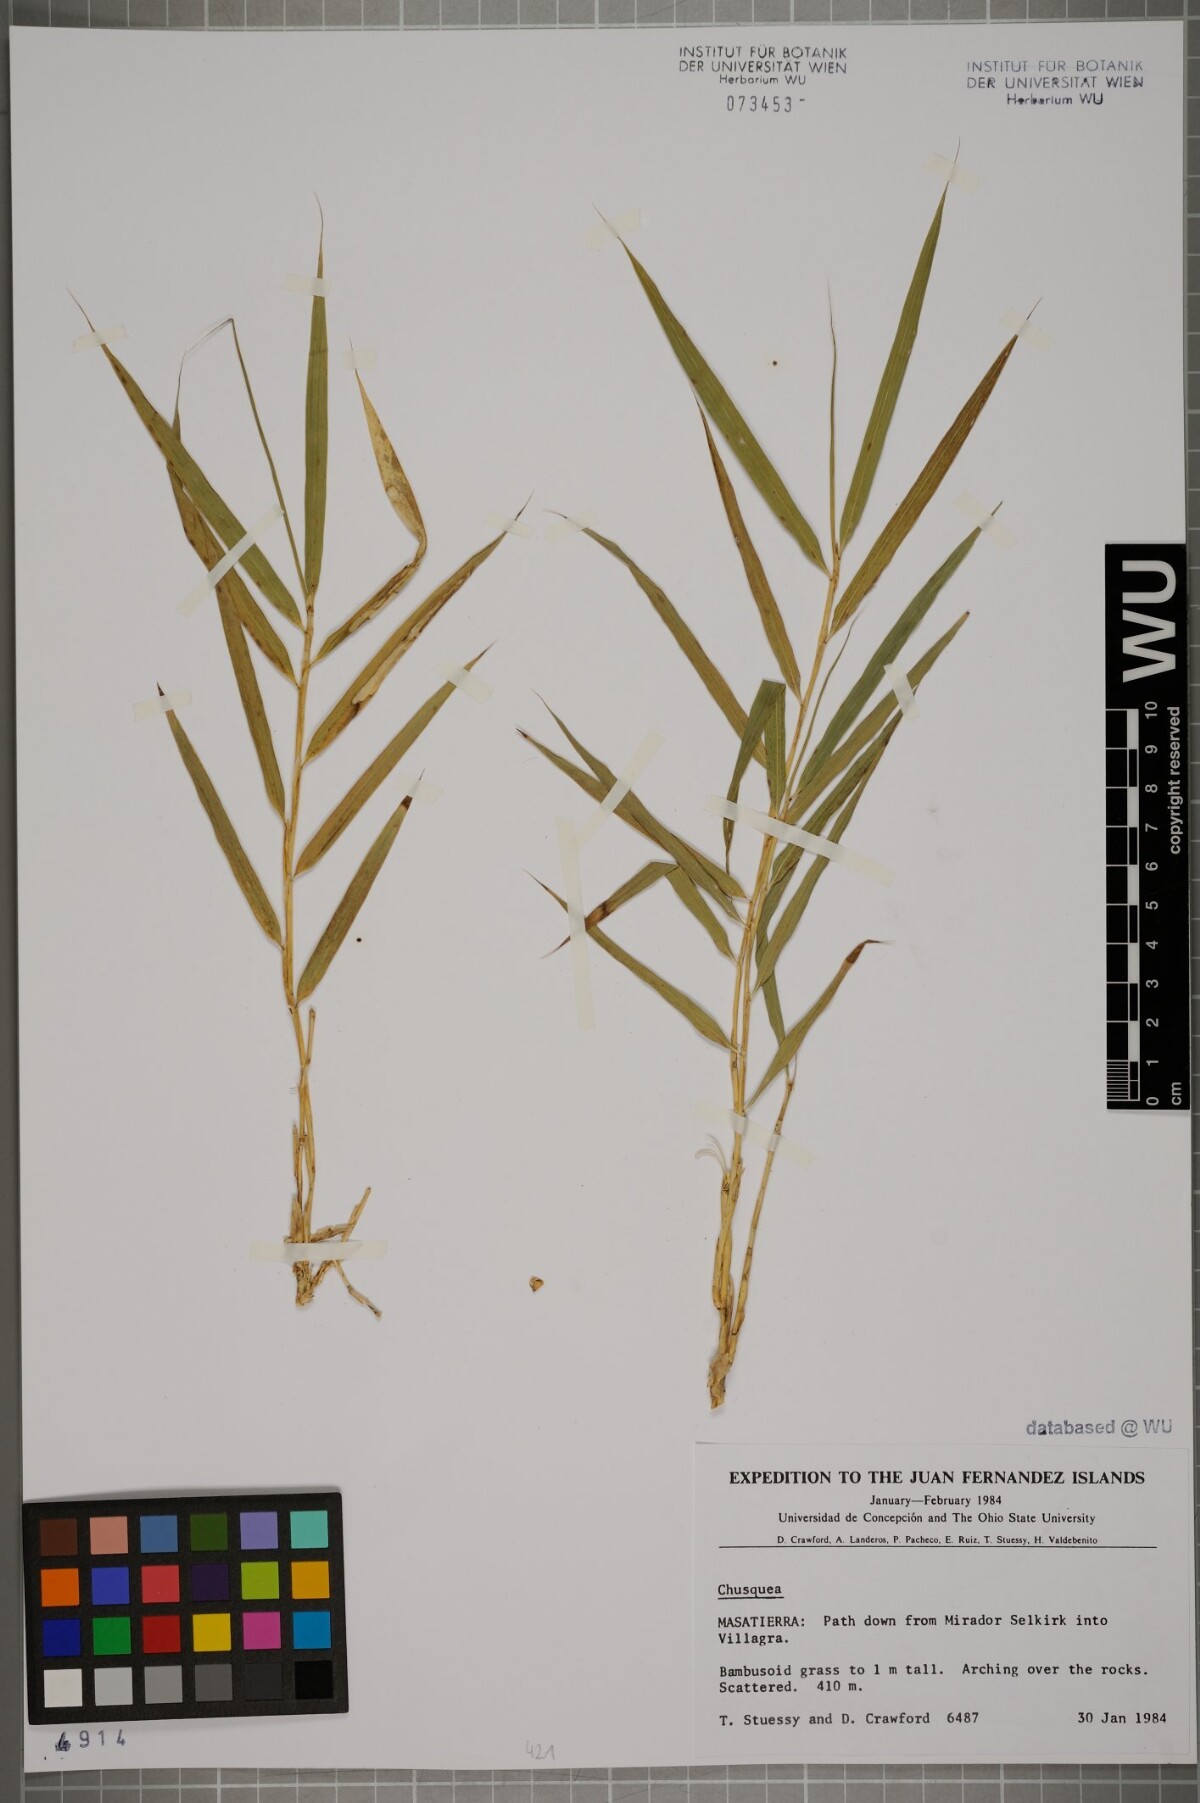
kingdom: Plantae
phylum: Tracheophyta
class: Liliopsida
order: Poales
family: Poaceae
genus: Chusquea
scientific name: Chusquea
